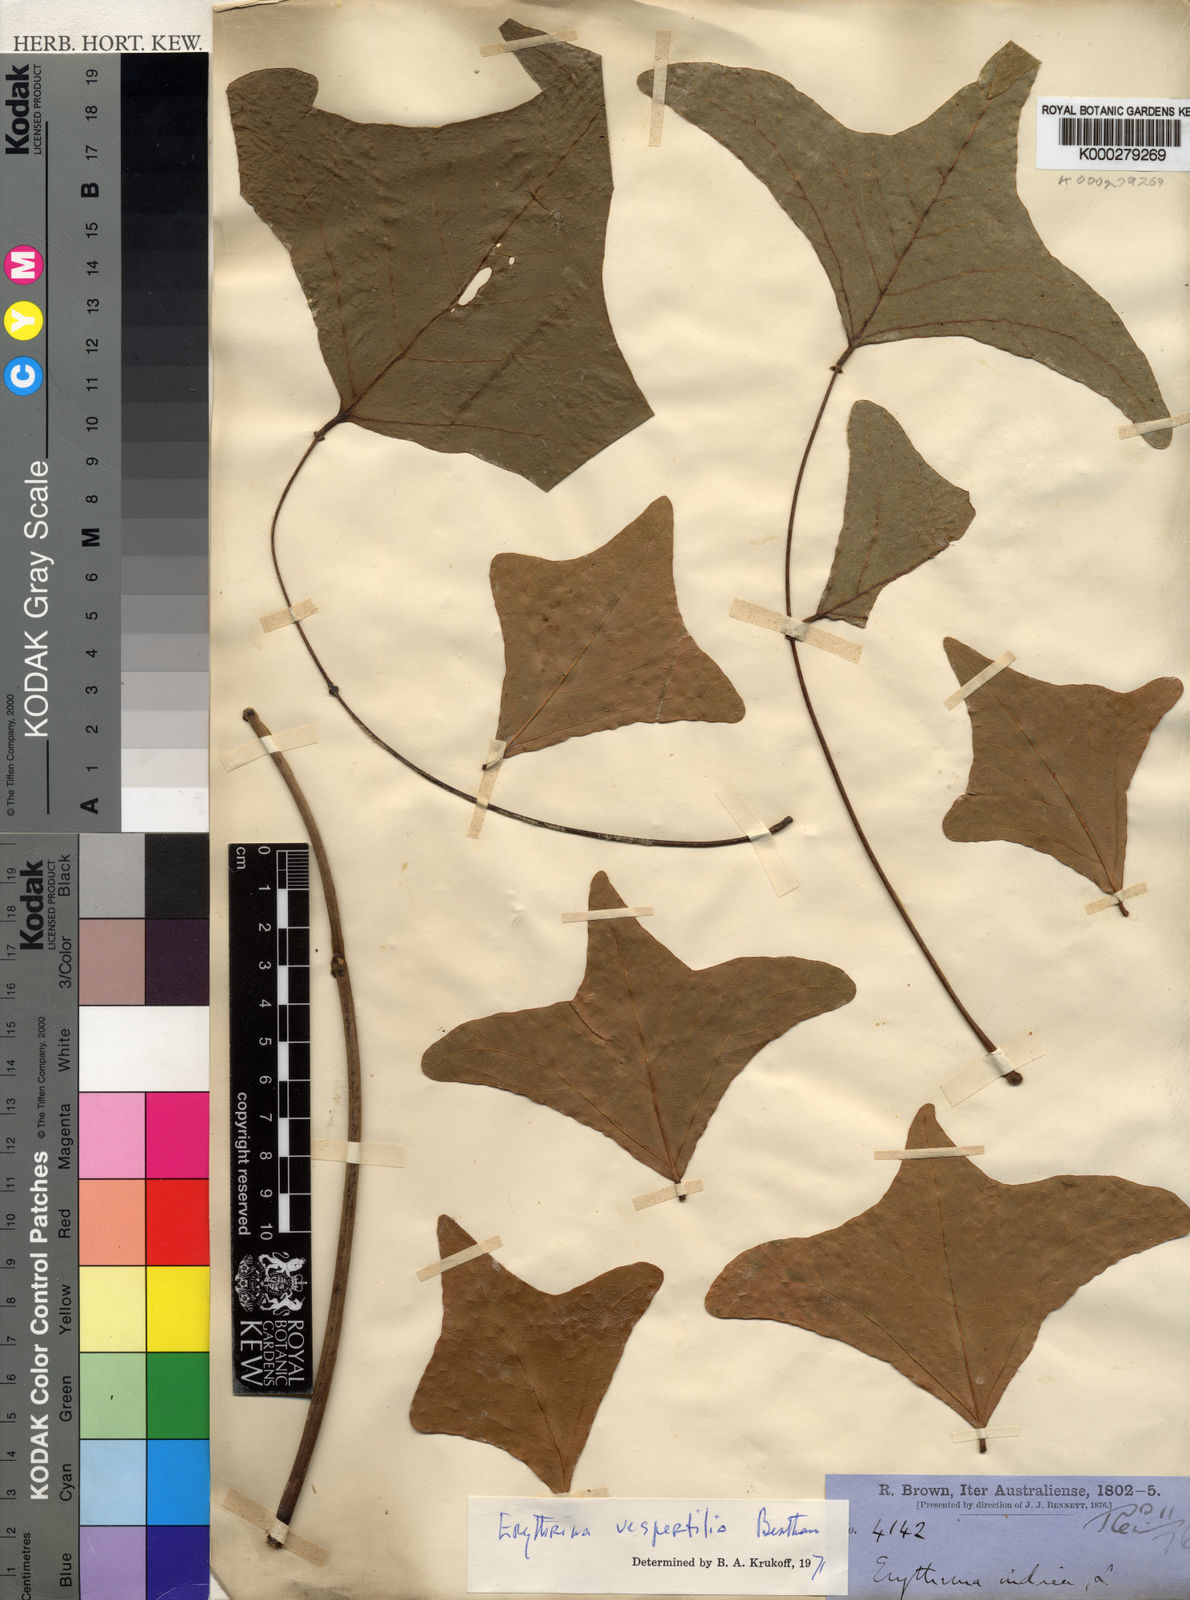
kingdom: Plantae
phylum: Tracheophyta
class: Magnoliopsida
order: Fabales
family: Fabaceae
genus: Erythrina
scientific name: Erythrina vespertilio
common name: Bat-wing coral tree
